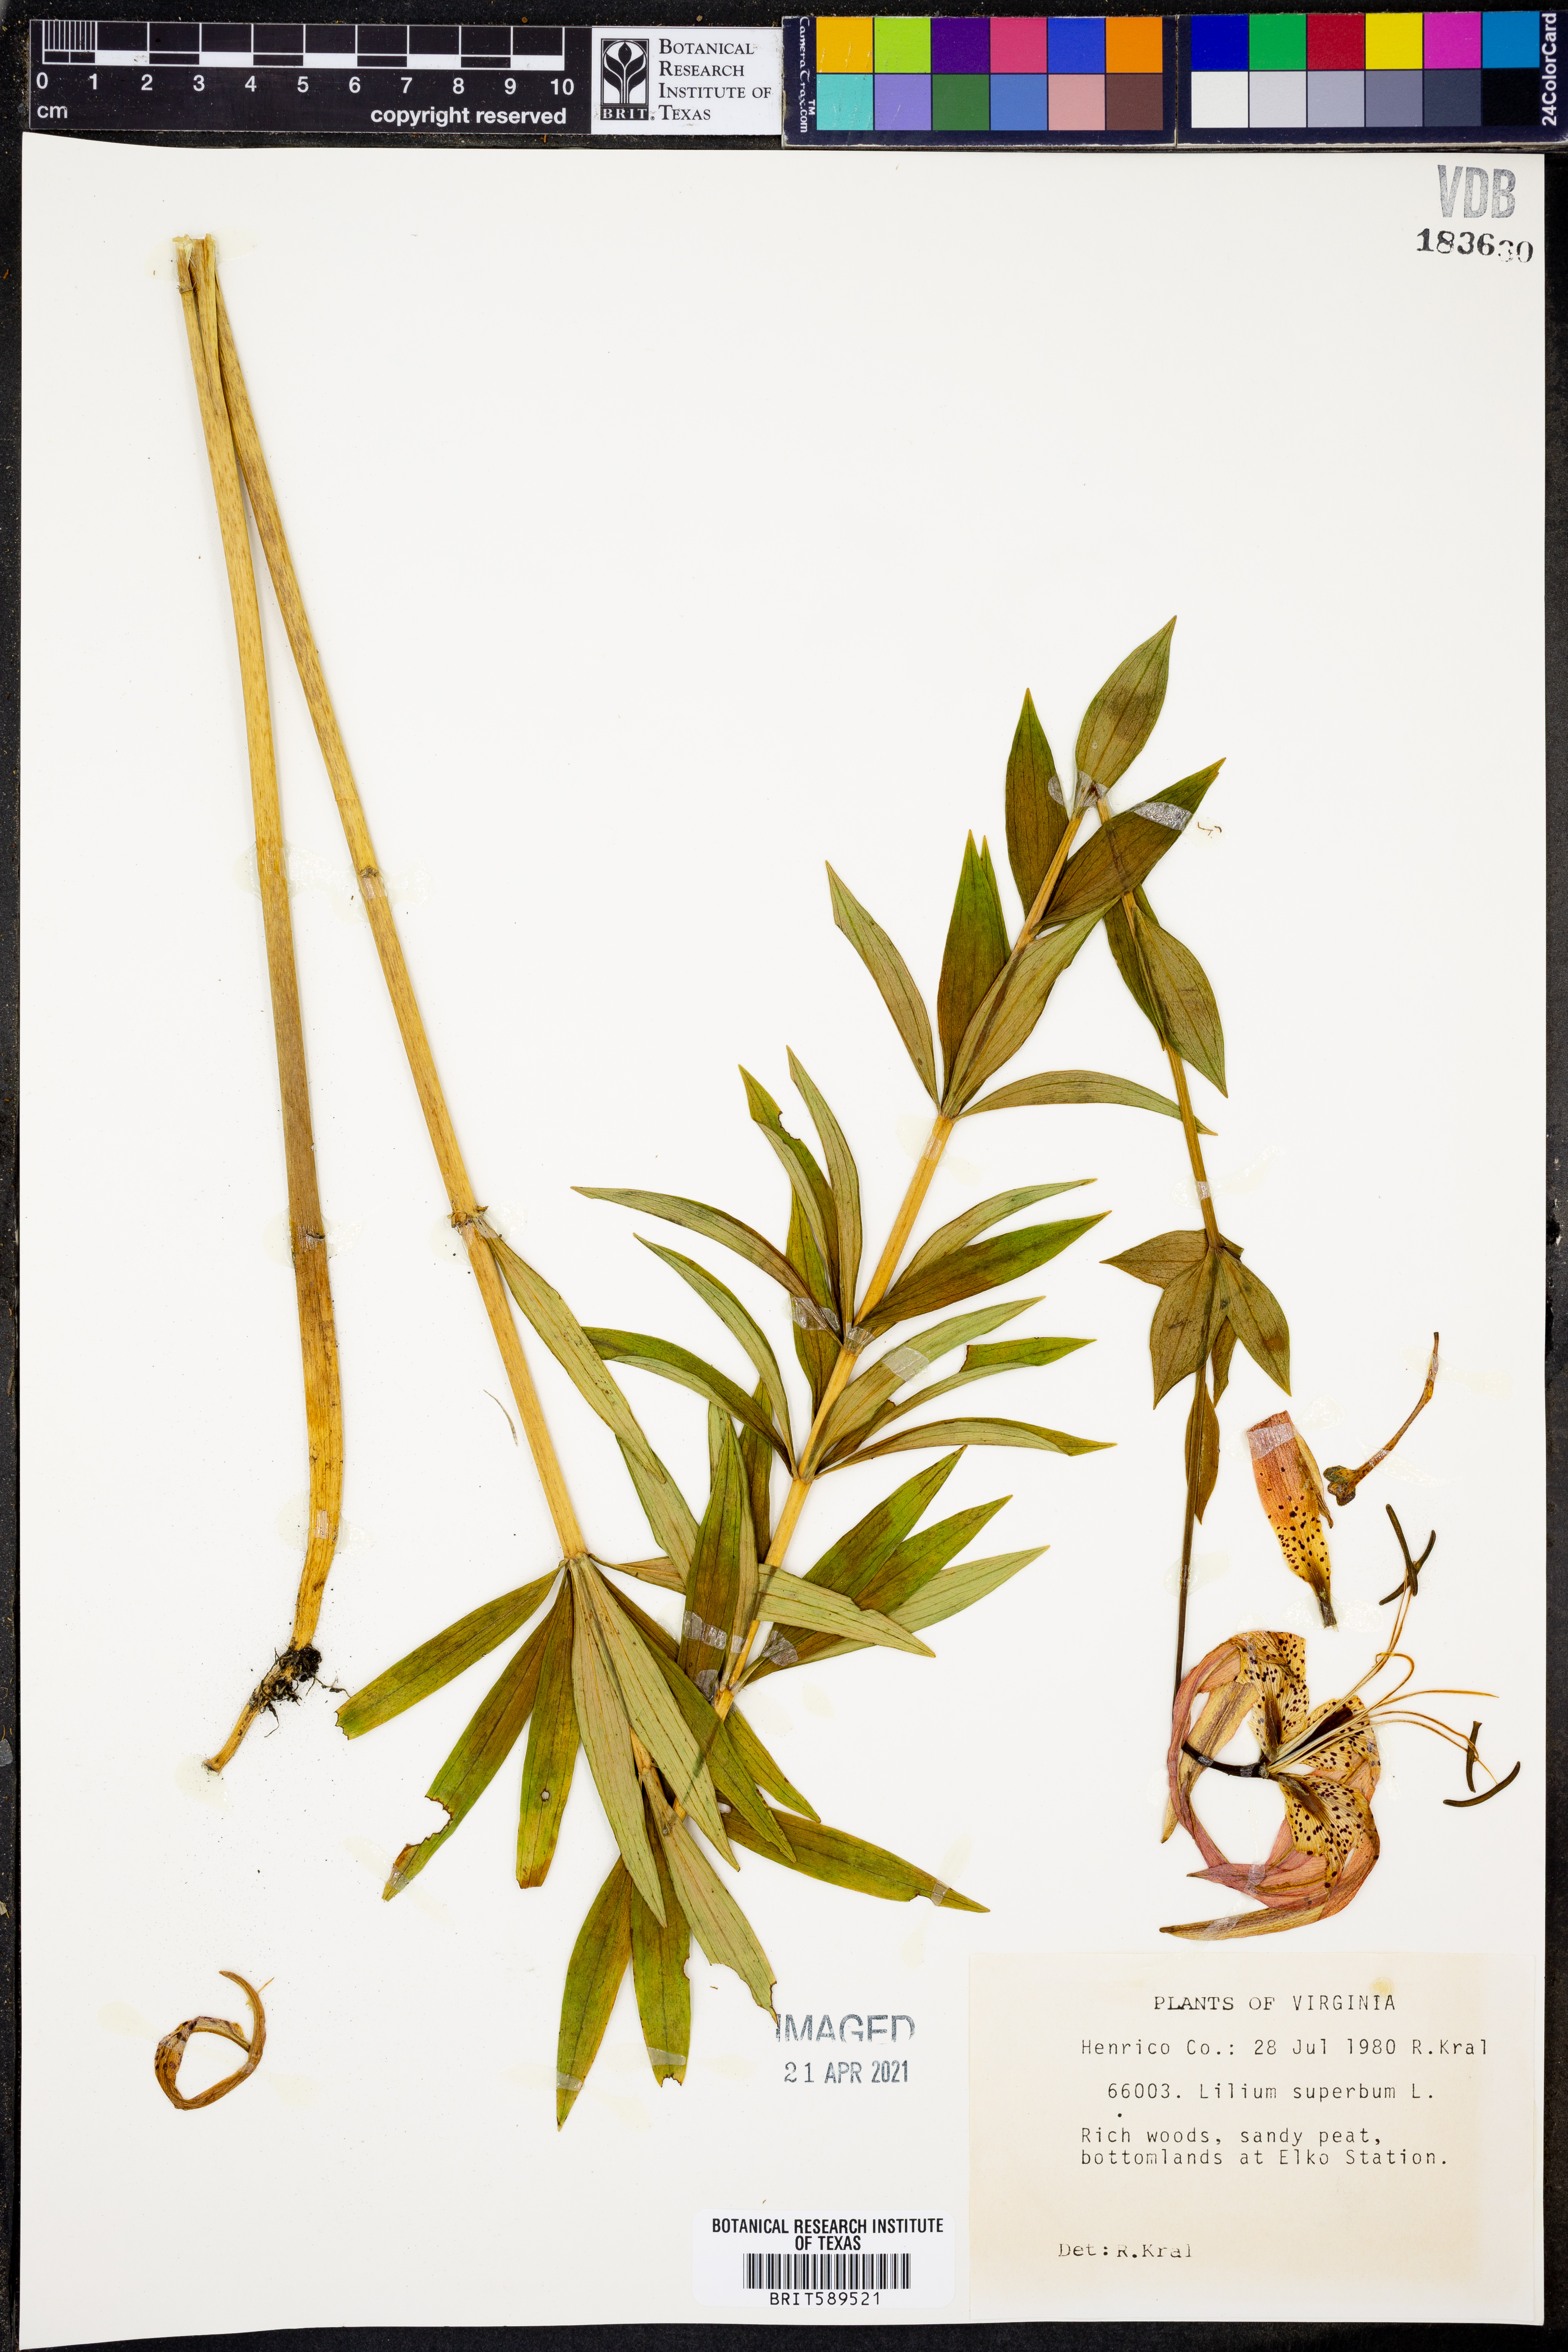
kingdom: Plantae
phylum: Tracheophyta
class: Liliopsida
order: Liliales
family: Liliaceae
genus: Lilium
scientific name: Lilium superbum
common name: American turk's-cap lily
